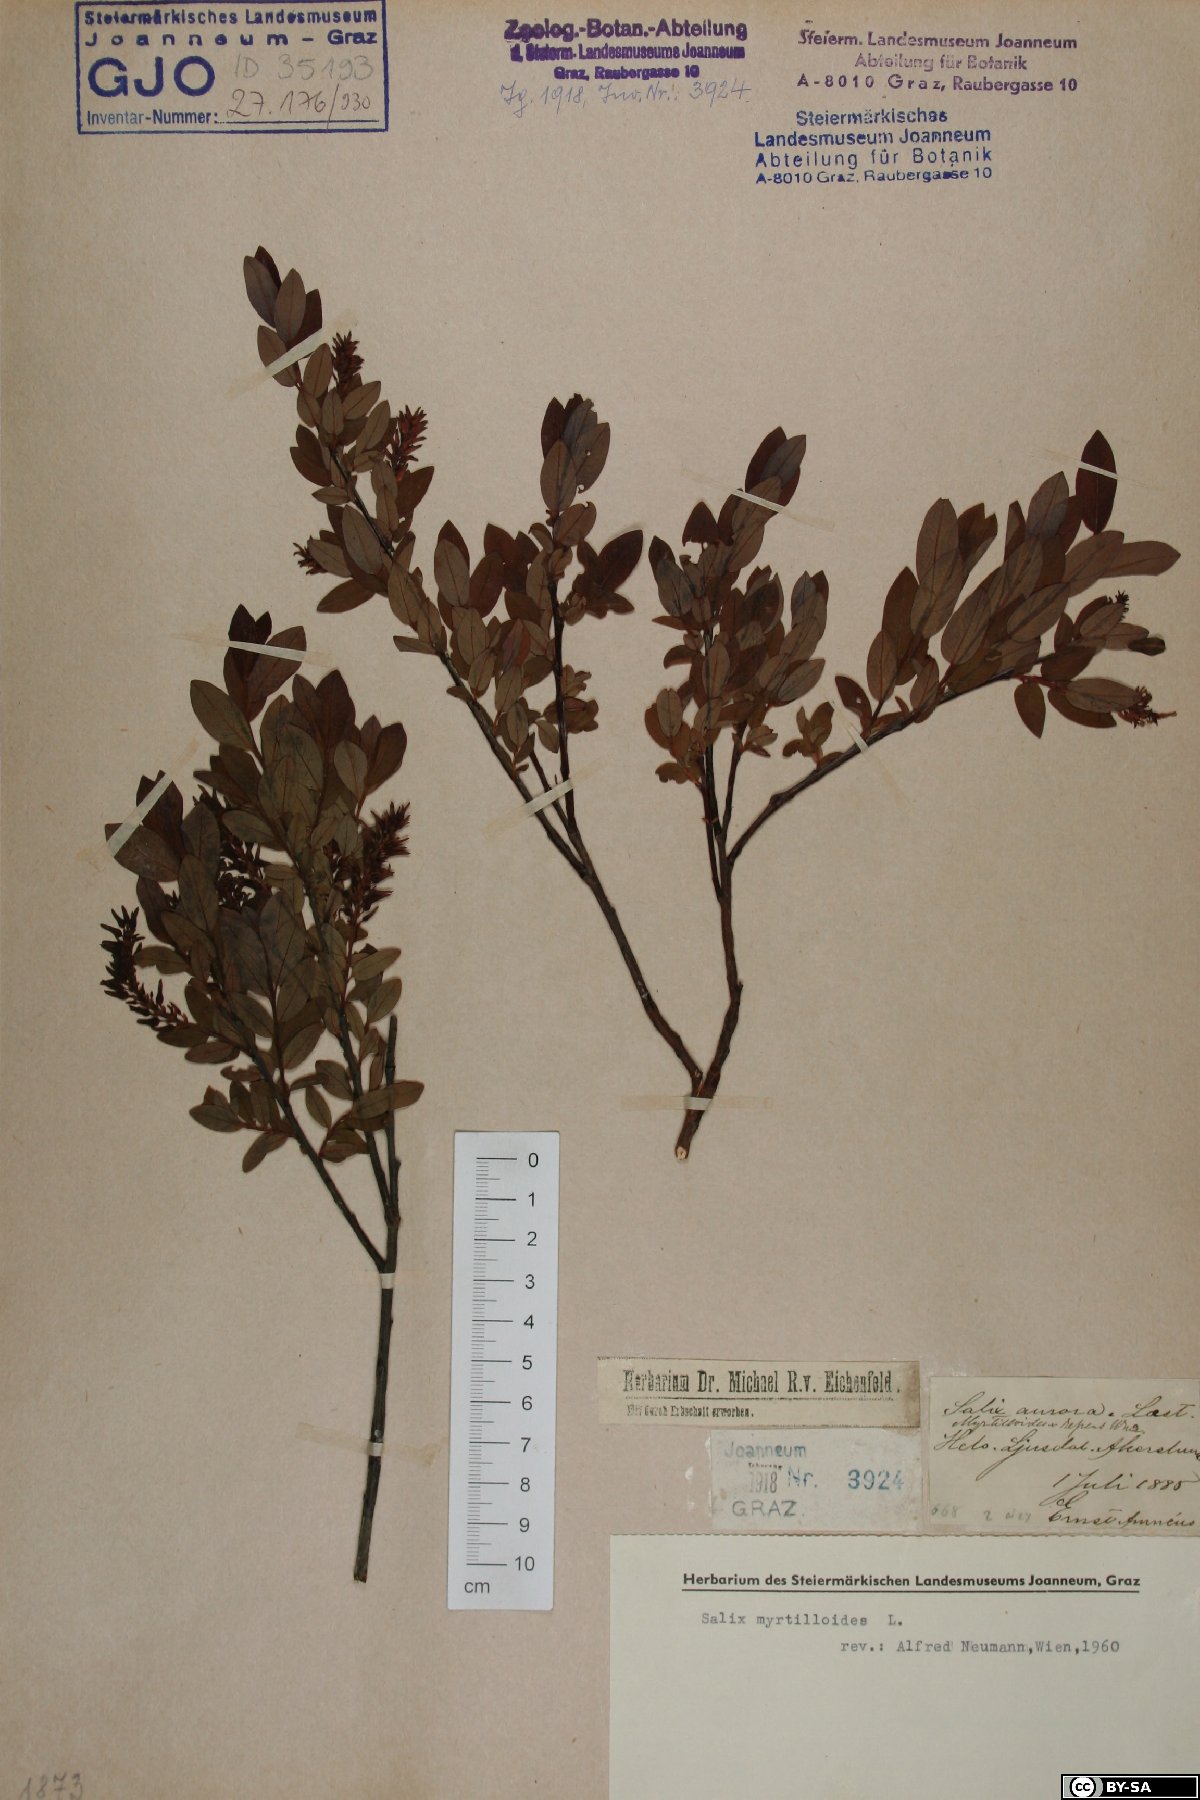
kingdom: Plantae
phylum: Tracheophyta
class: Magnoliopsida
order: Malpighiales
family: Salicaceae
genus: Salix
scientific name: Salix myrtilloides
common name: Myrtle-leaved willow
